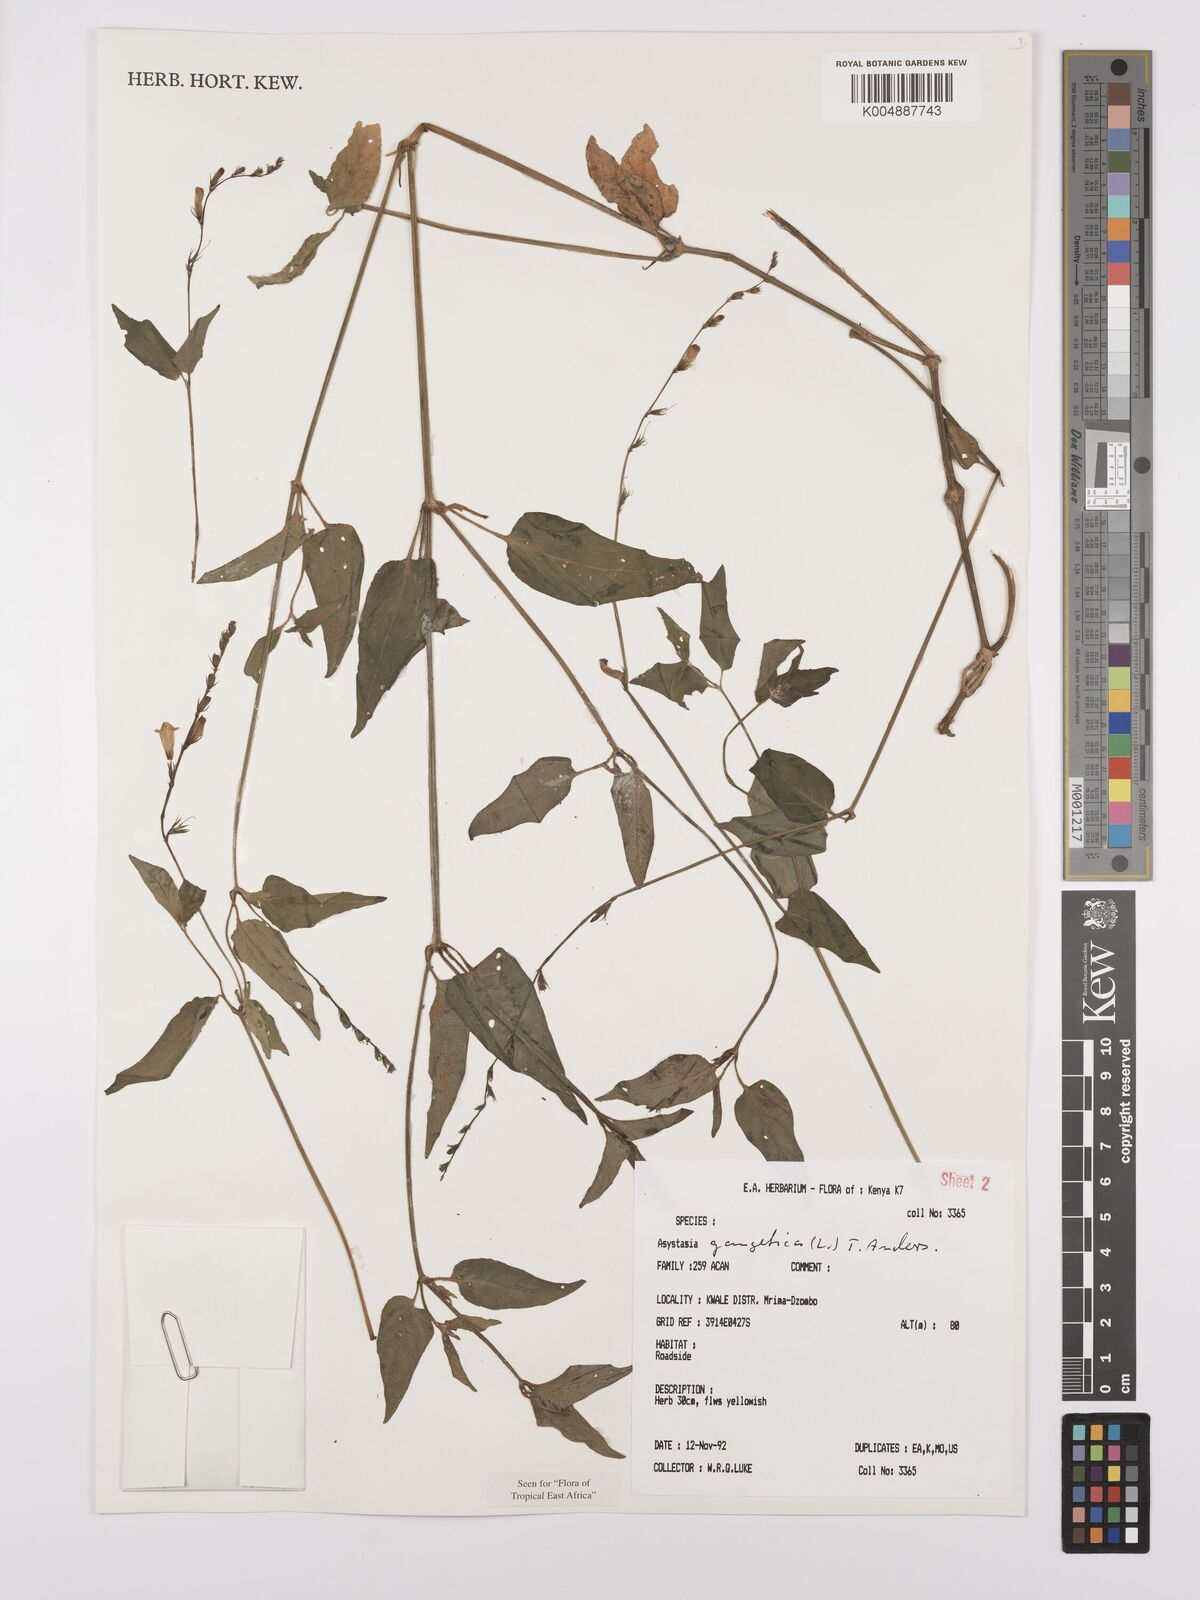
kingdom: Plantae
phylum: Tracheophyta
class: Magnoliopsida
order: Lamiales
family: Acanthaceae
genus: Asystasia
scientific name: Asystasia gangetica
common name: Chinese violet
